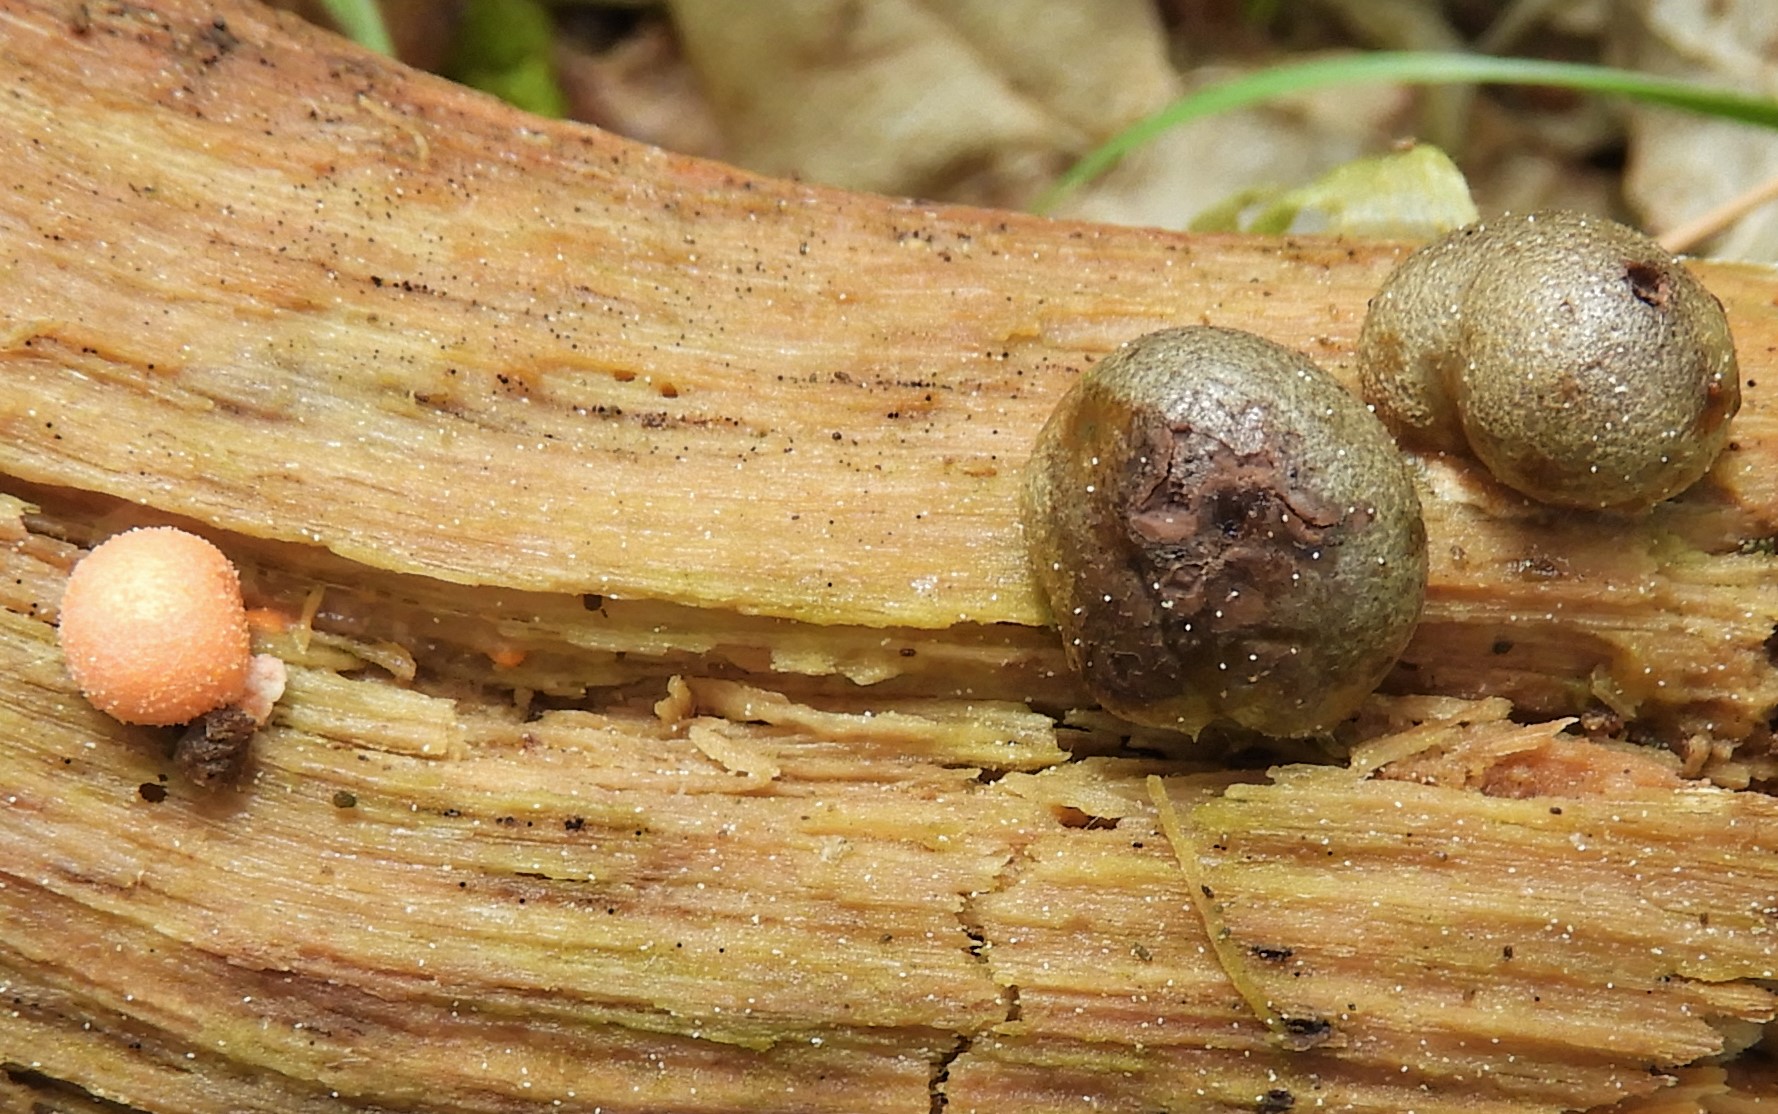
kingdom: Protozoa
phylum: Mycetozoa
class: Myxomycetes
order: Cribrariales
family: Tubiferaceae
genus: Lycogala
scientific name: Lycogala epidendrum
